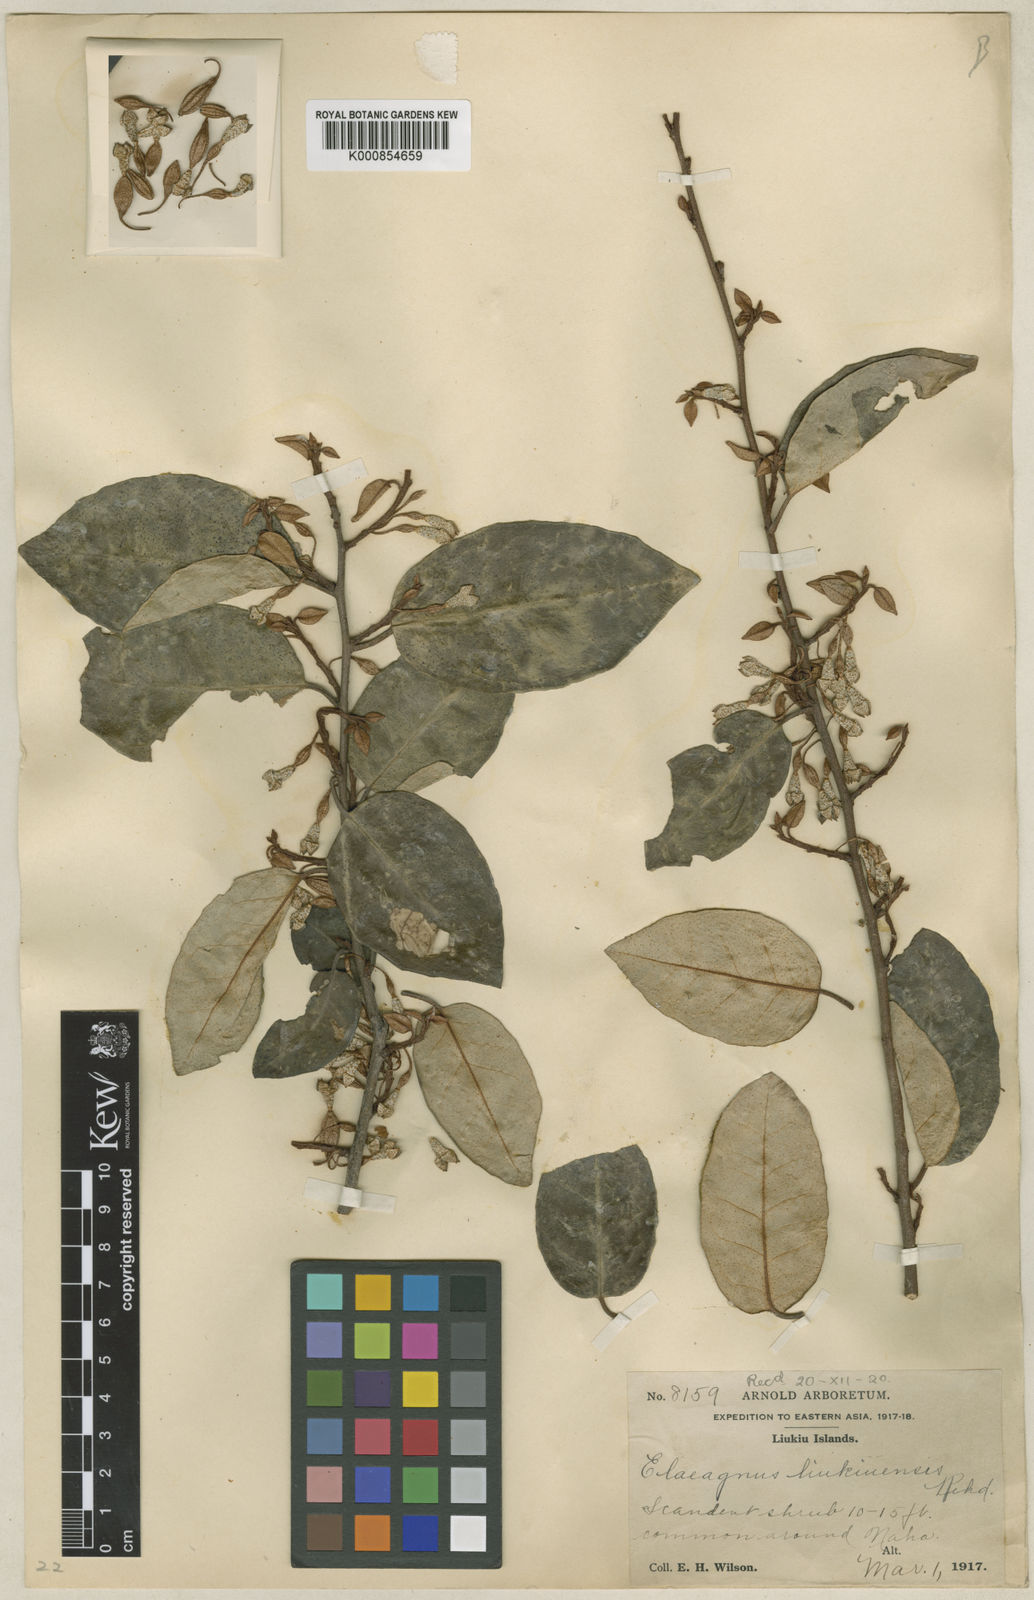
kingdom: Plantae
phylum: Tracheophyta
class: Magnoliopsida
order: Rosales
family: Elaeagnaceae
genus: Elaeagnus
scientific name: Elaeagnus maritima
